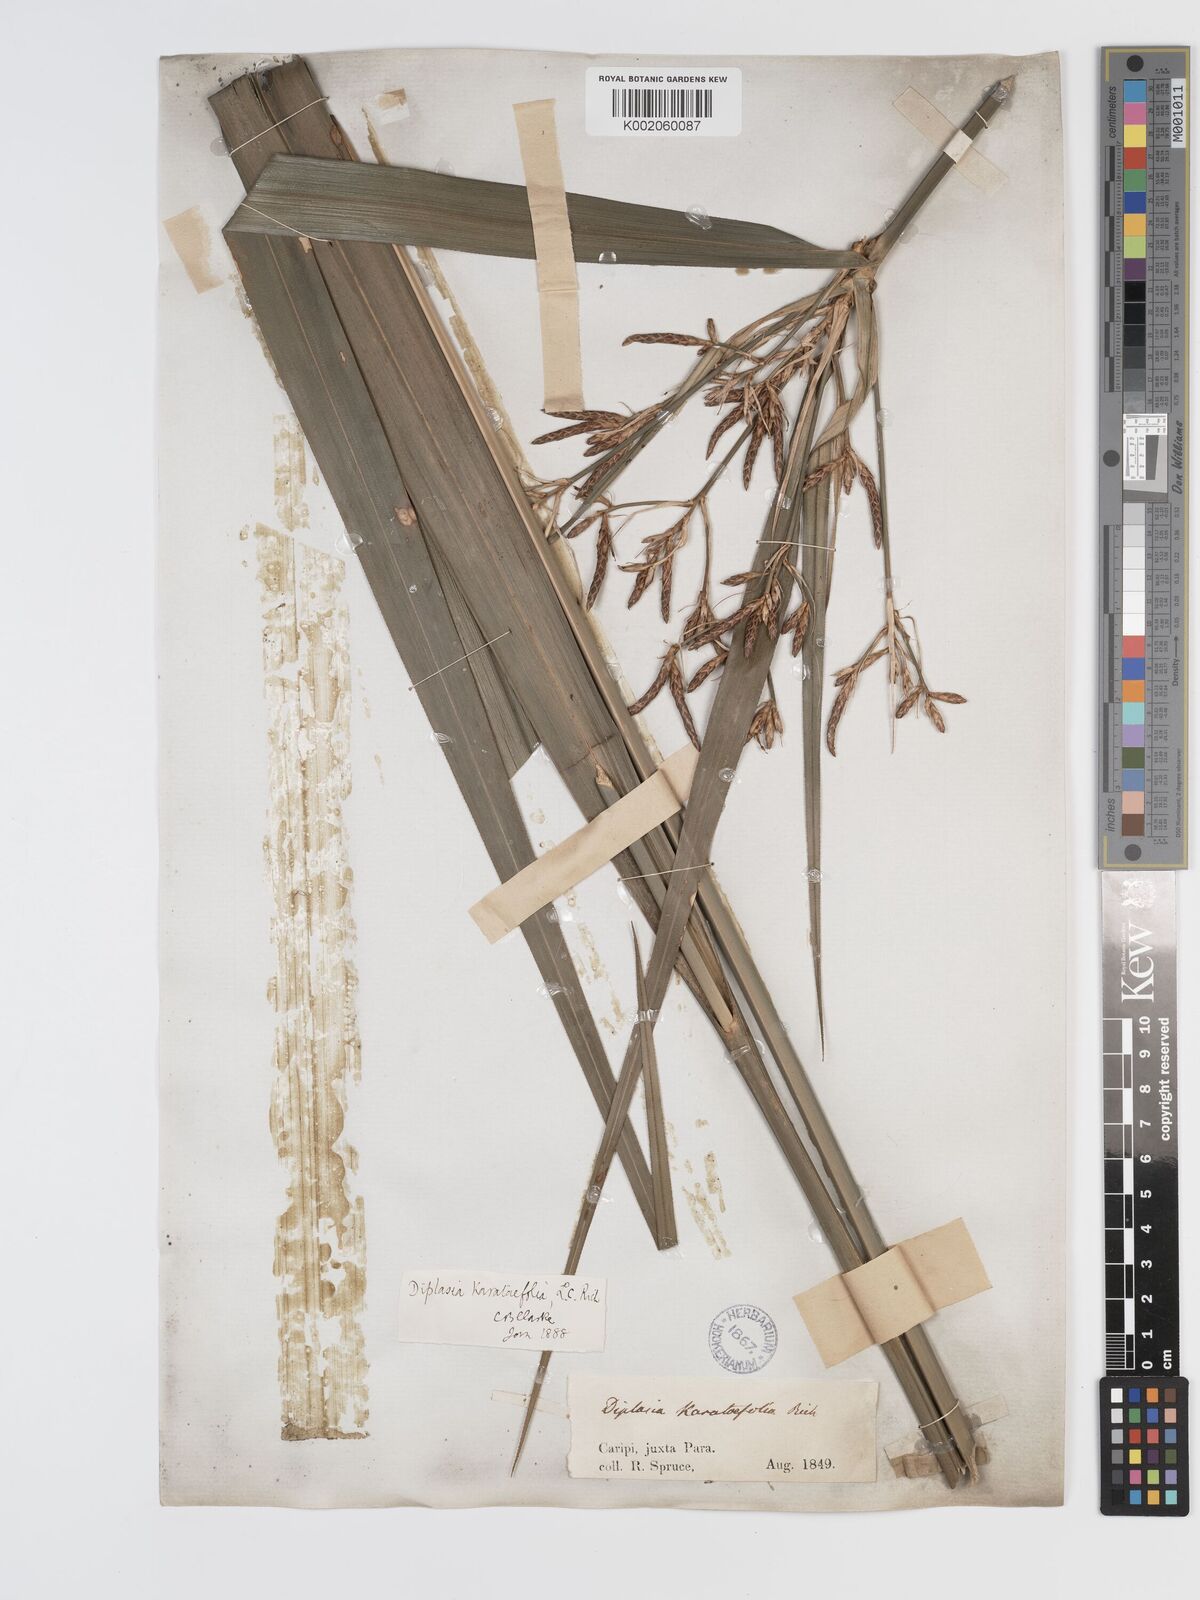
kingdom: Plantae
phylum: Tracheophyta
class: Liliopsida
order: Poales
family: Cyperaceae
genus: Diplasia
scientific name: Diplasia karatifolia
